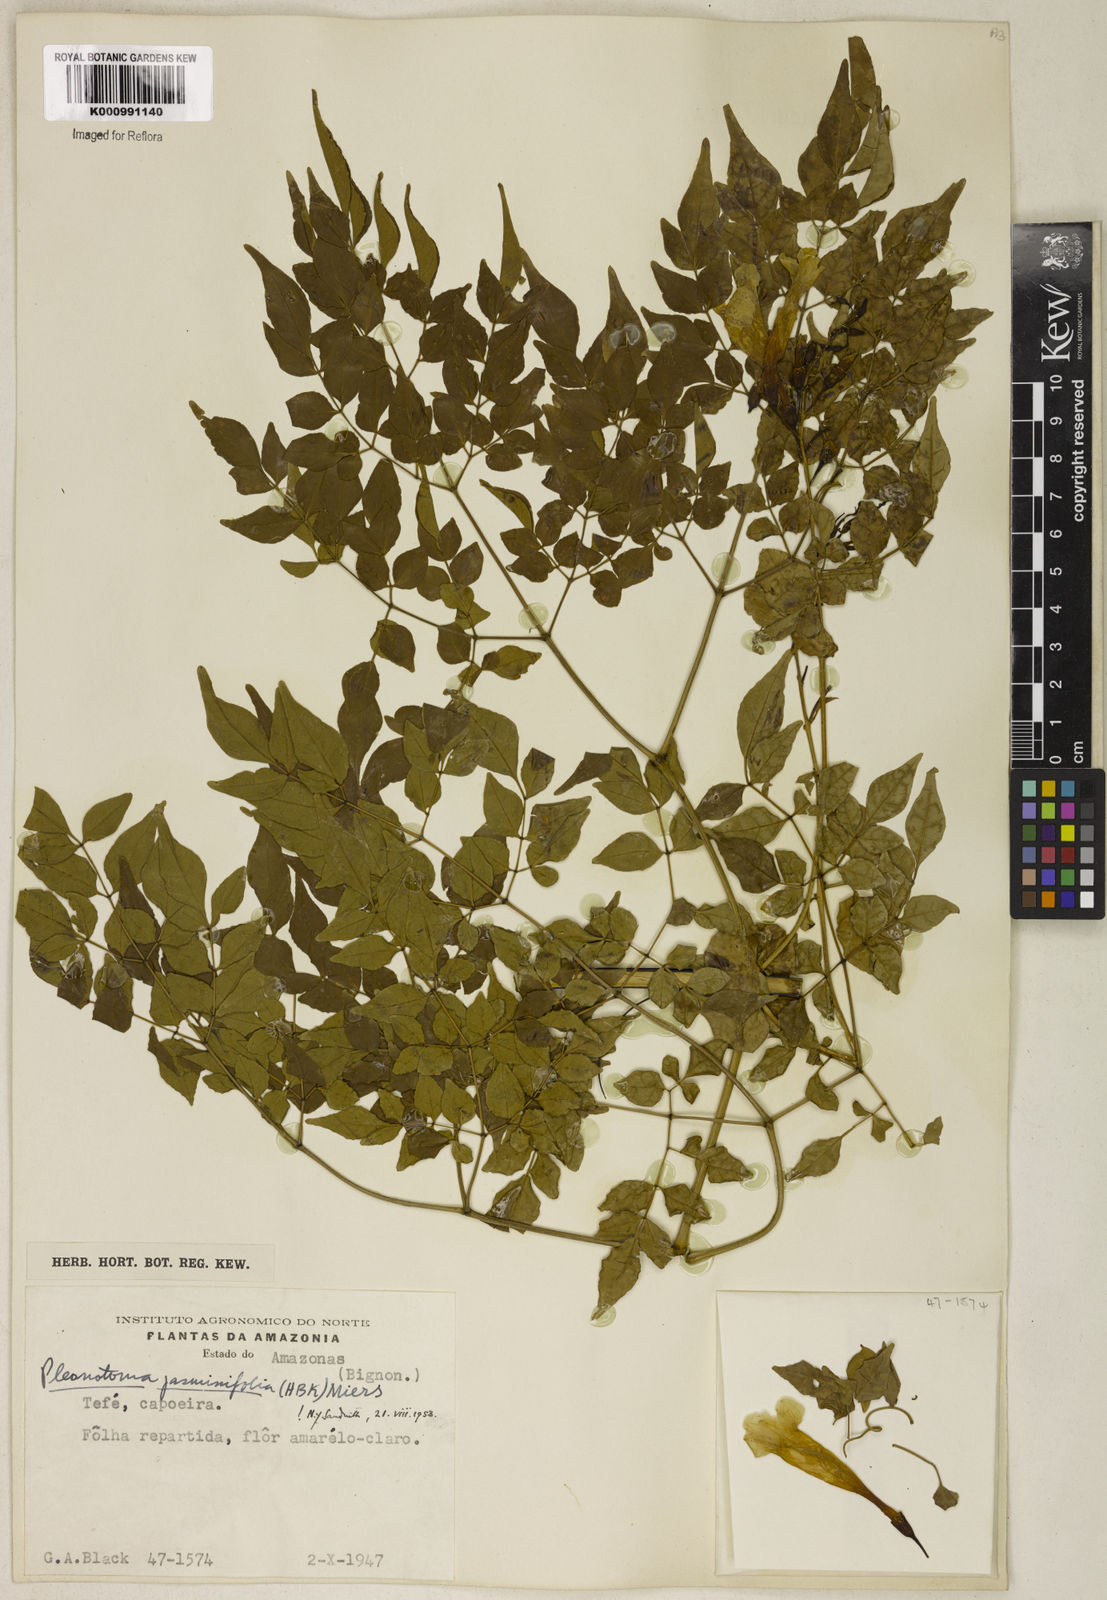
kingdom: Plantae
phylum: Tracheophyta
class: Magnoliopsida
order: Lamiales
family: Bignoniaceae
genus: Pleonotoma
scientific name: Pleonotoma jasminifolia
